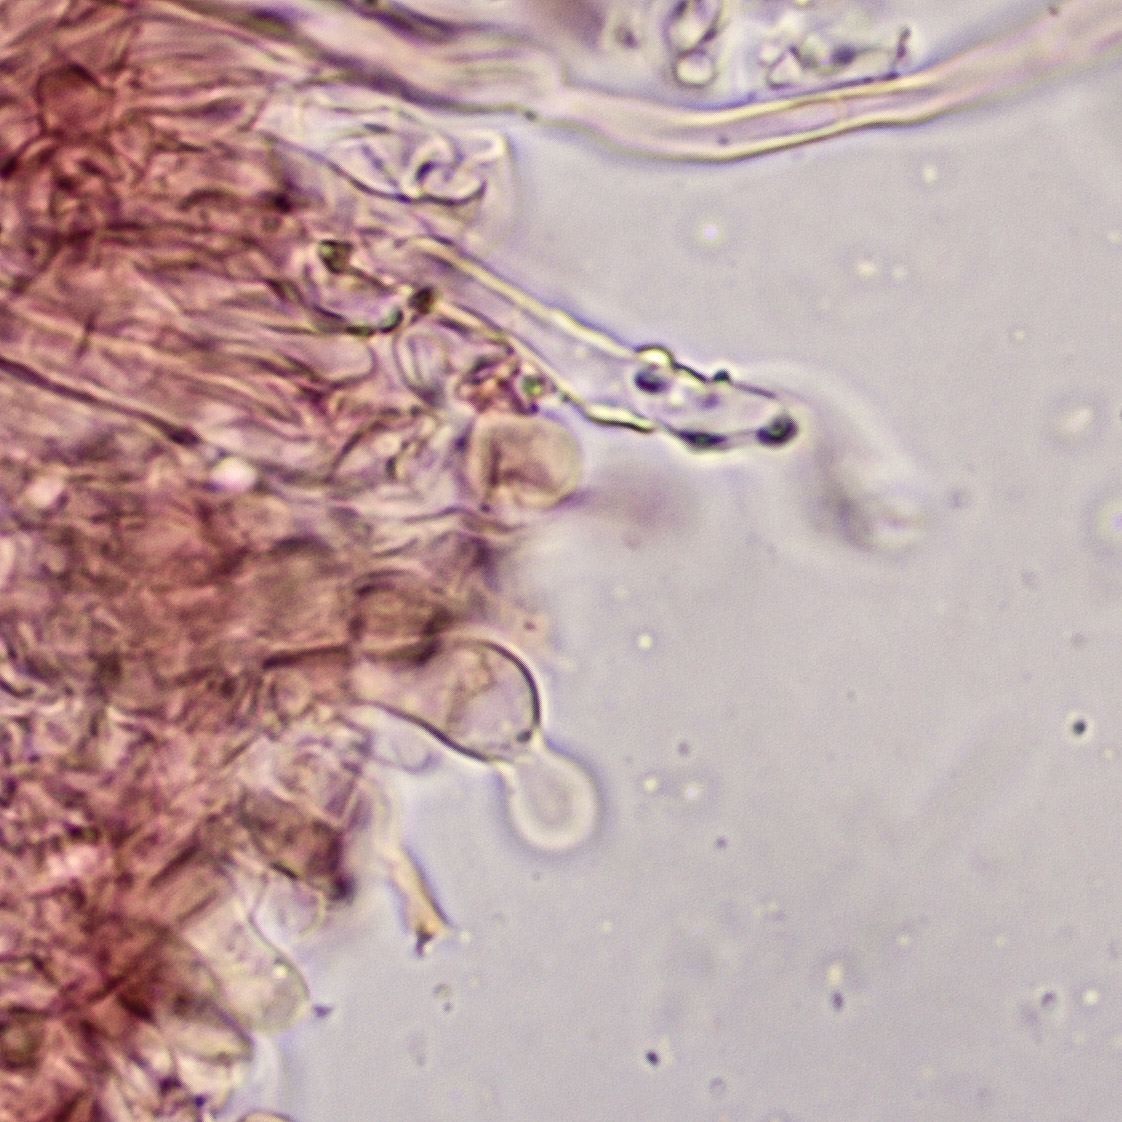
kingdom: Fungi
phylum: Basidiomycota
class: Agaricomycetes
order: Hymenochaetales
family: Schizoporaceae
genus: Xylodon
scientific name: Xylodon subtropicus
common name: labyrint-tandsvamp
